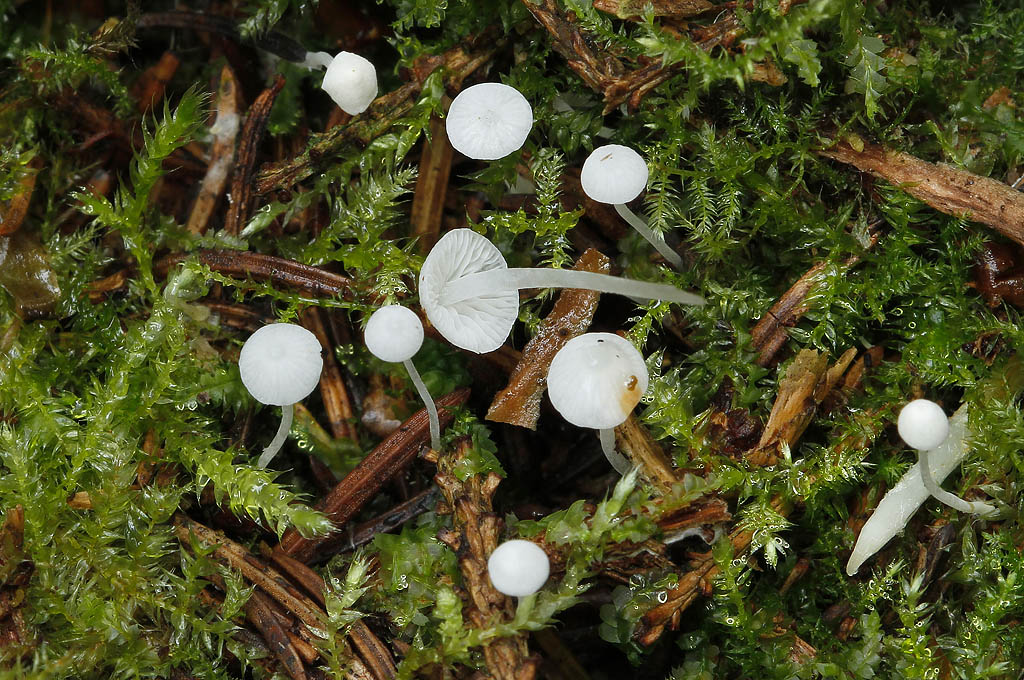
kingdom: Fungi
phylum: Basidiomycota
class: Agaricomycetes
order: Agaricales
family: Mycenaceae
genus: Hemimycena
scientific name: Hemimycena lactea
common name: mælkehvid huesvamp
